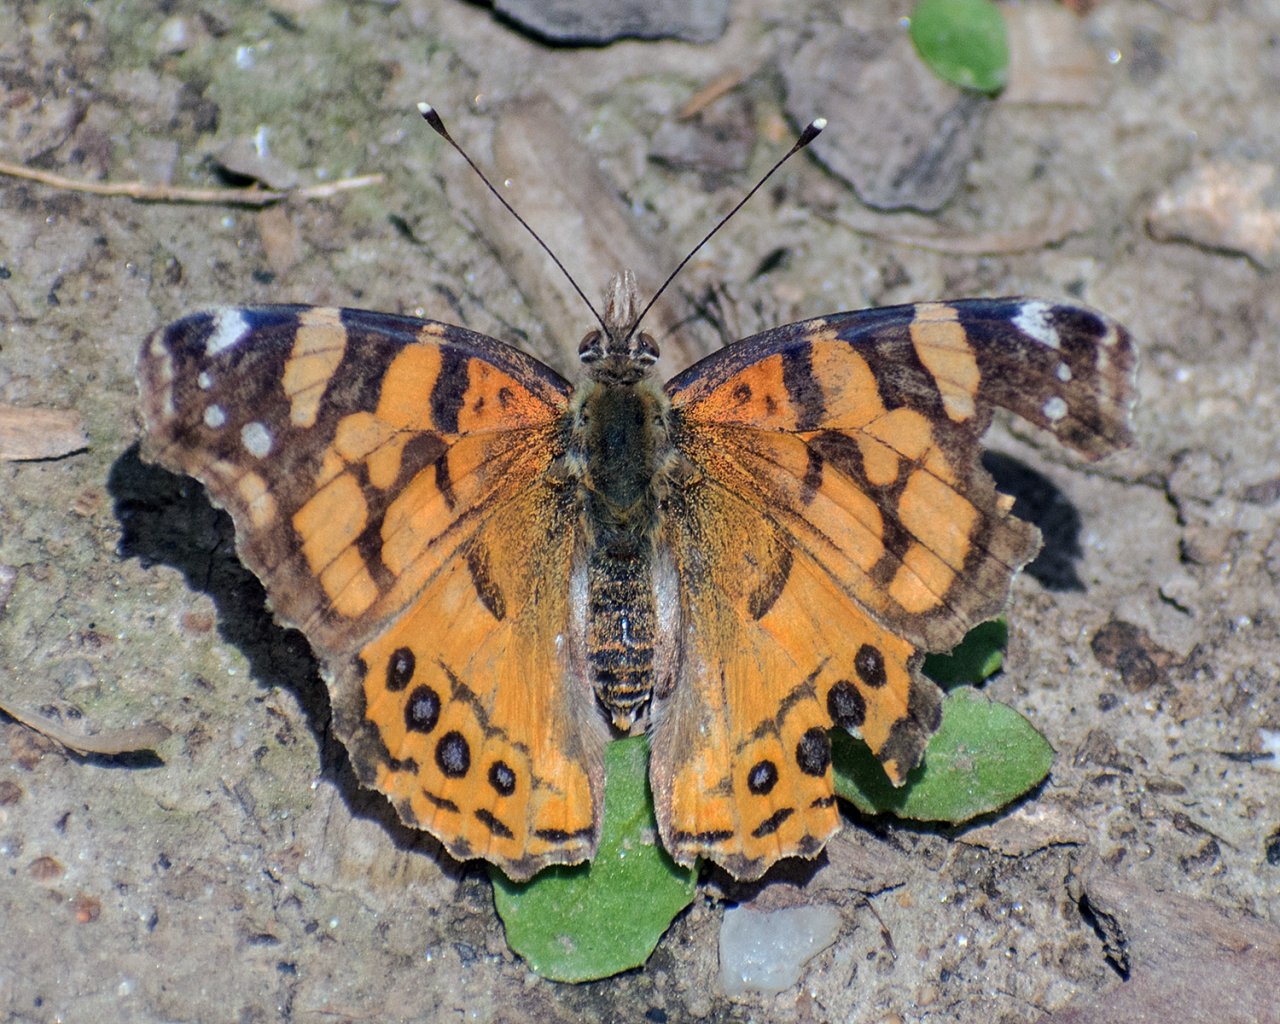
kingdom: Animalia
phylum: Arthropoda
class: Insecta
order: Lepidoptera
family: Nymphalidae
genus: Vanessa
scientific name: Vanessa annabella
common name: West Coast Lady
